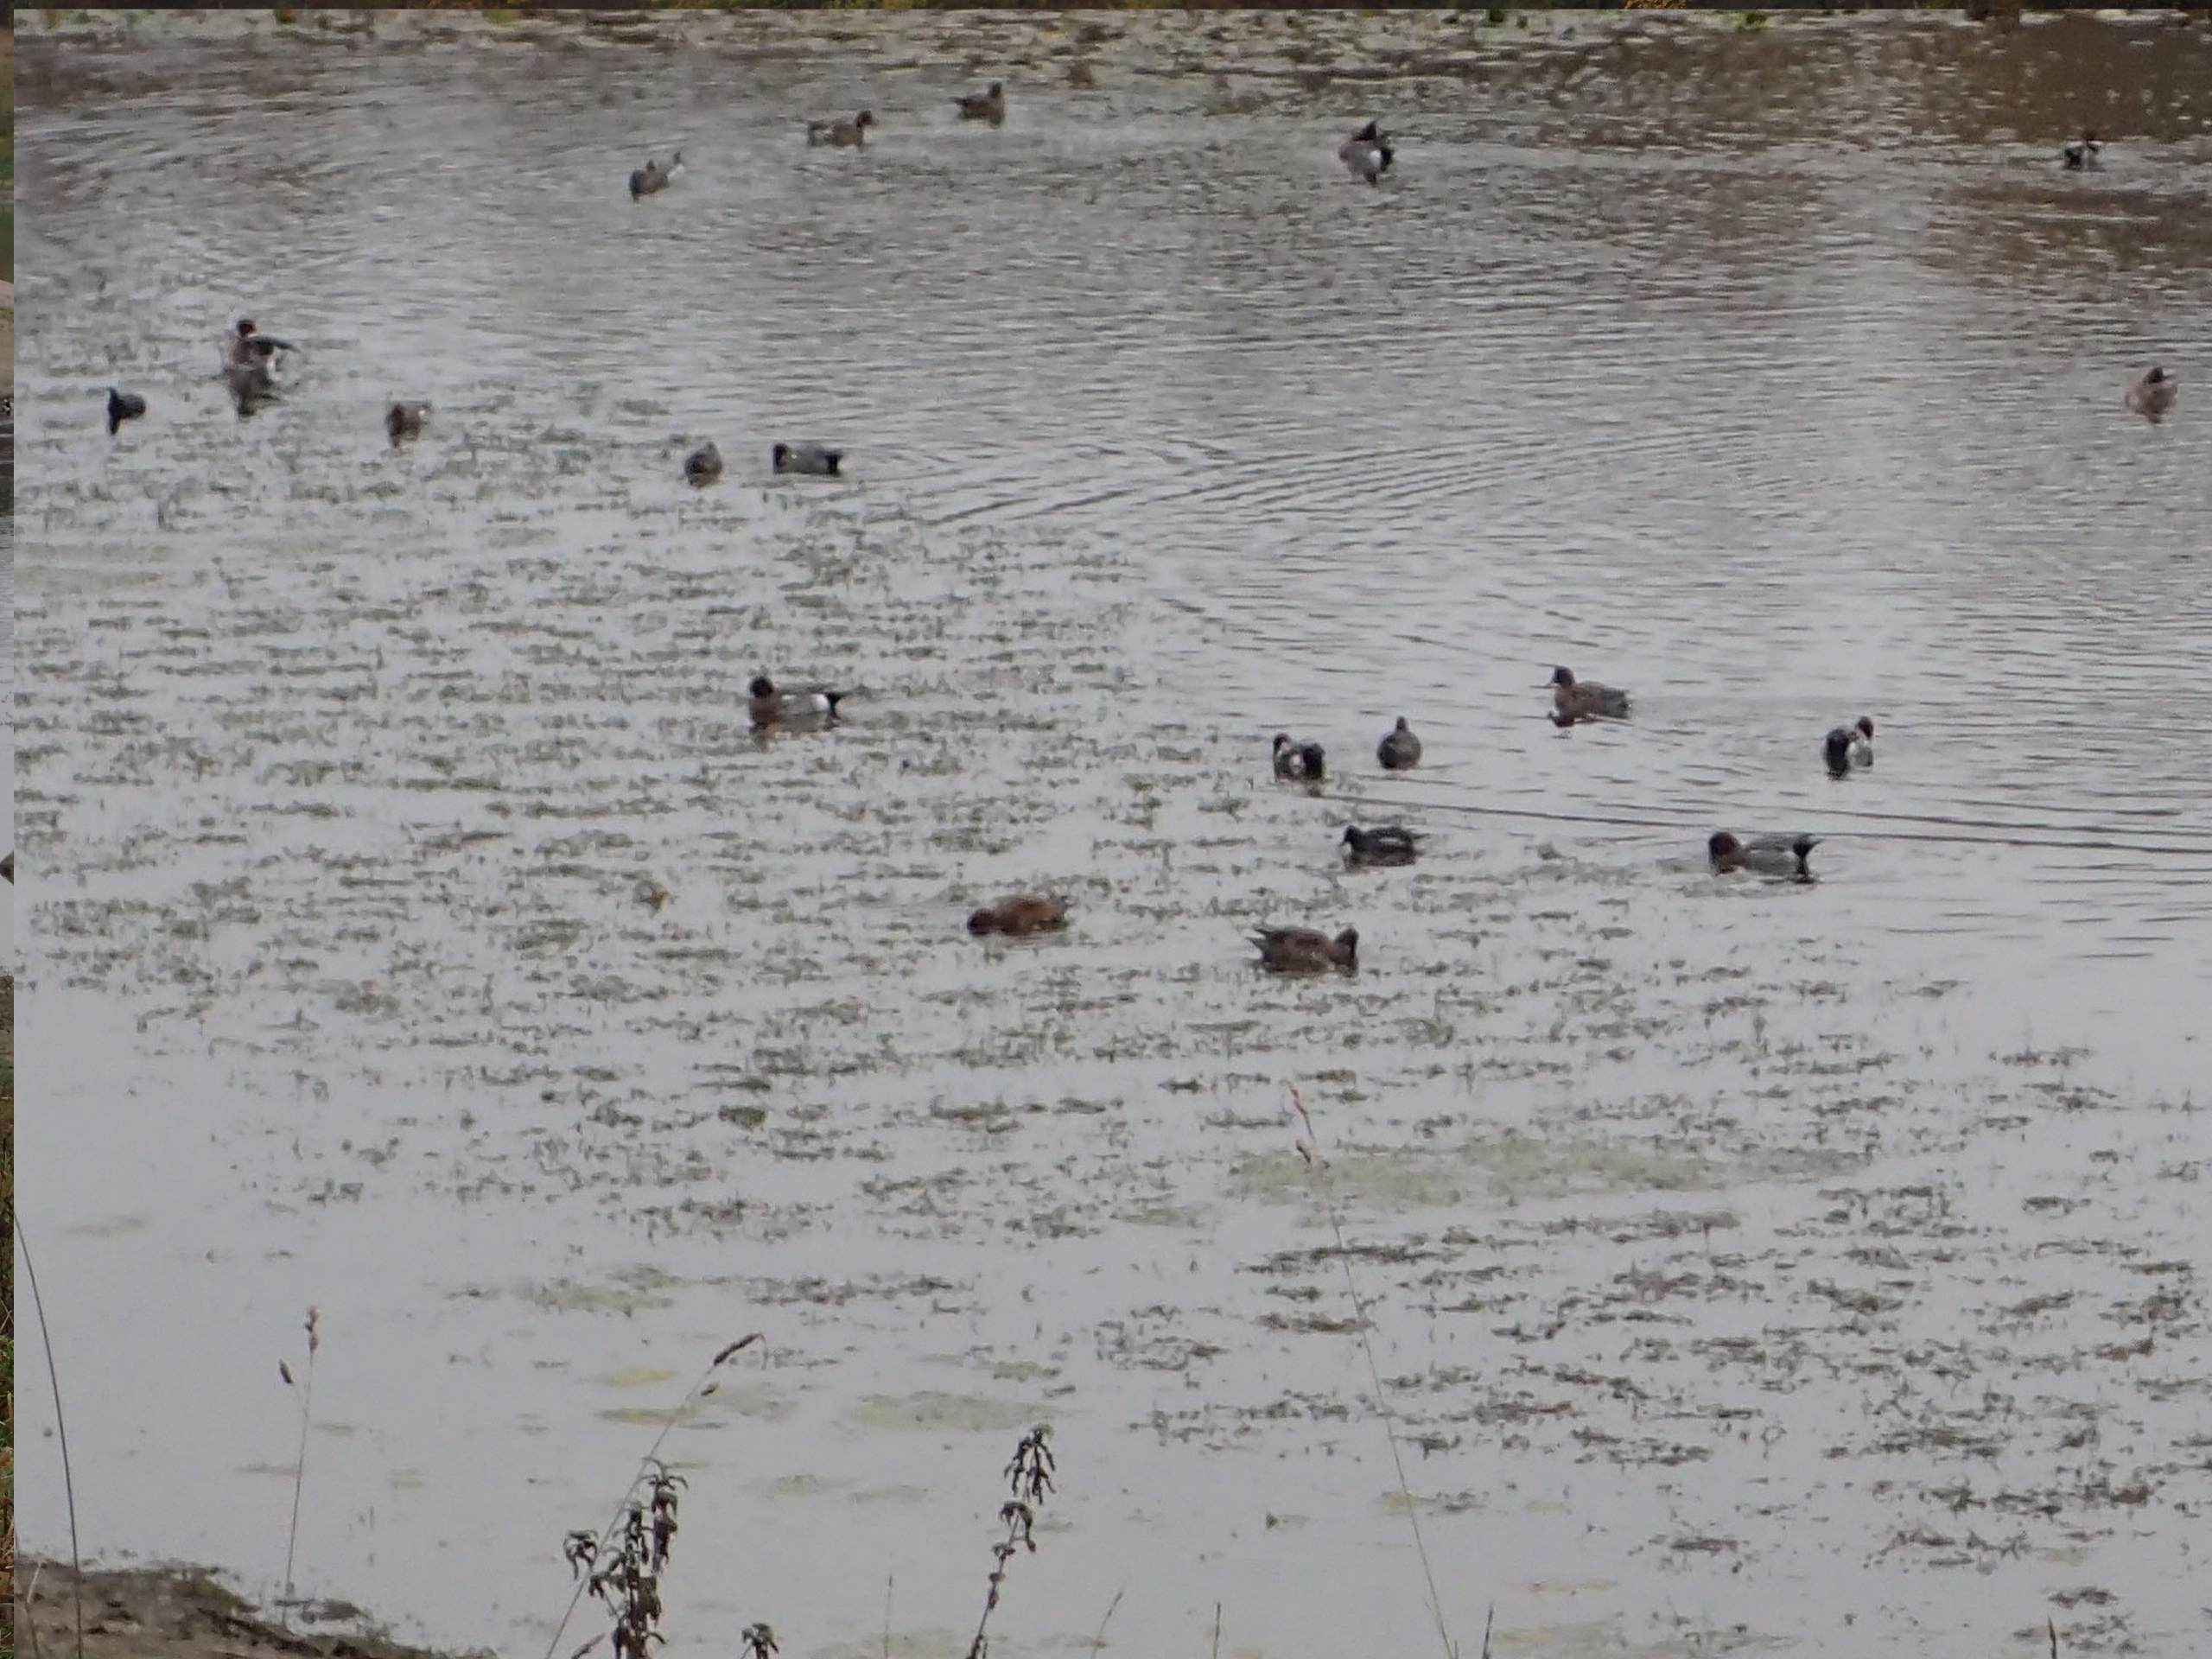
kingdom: Animalia
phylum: Chordata
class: Aves
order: Anseriformes
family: Anatidae
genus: Mareca
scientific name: Mareca penelope
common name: Pibeand
